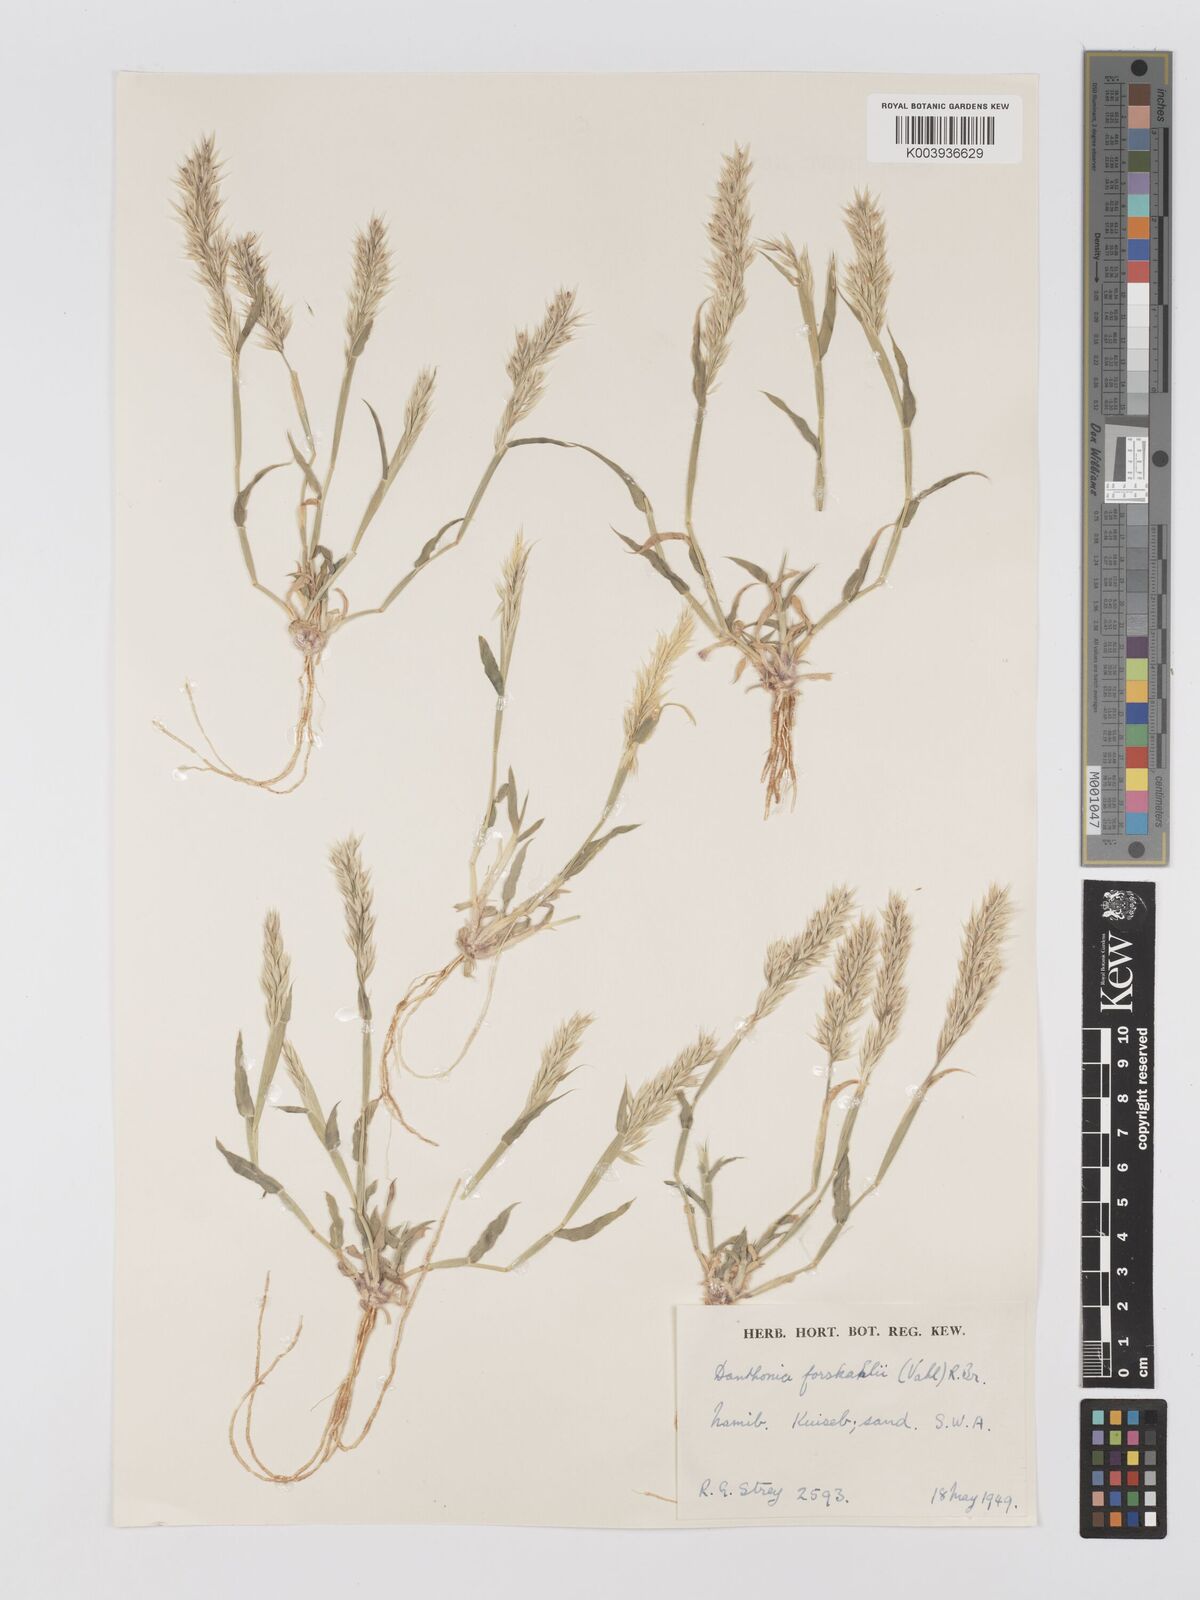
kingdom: Plantae
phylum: Tracheophyta
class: Liliopsida
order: Poales
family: Poaceae
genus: Centropodia
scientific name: Centropodia glauca
